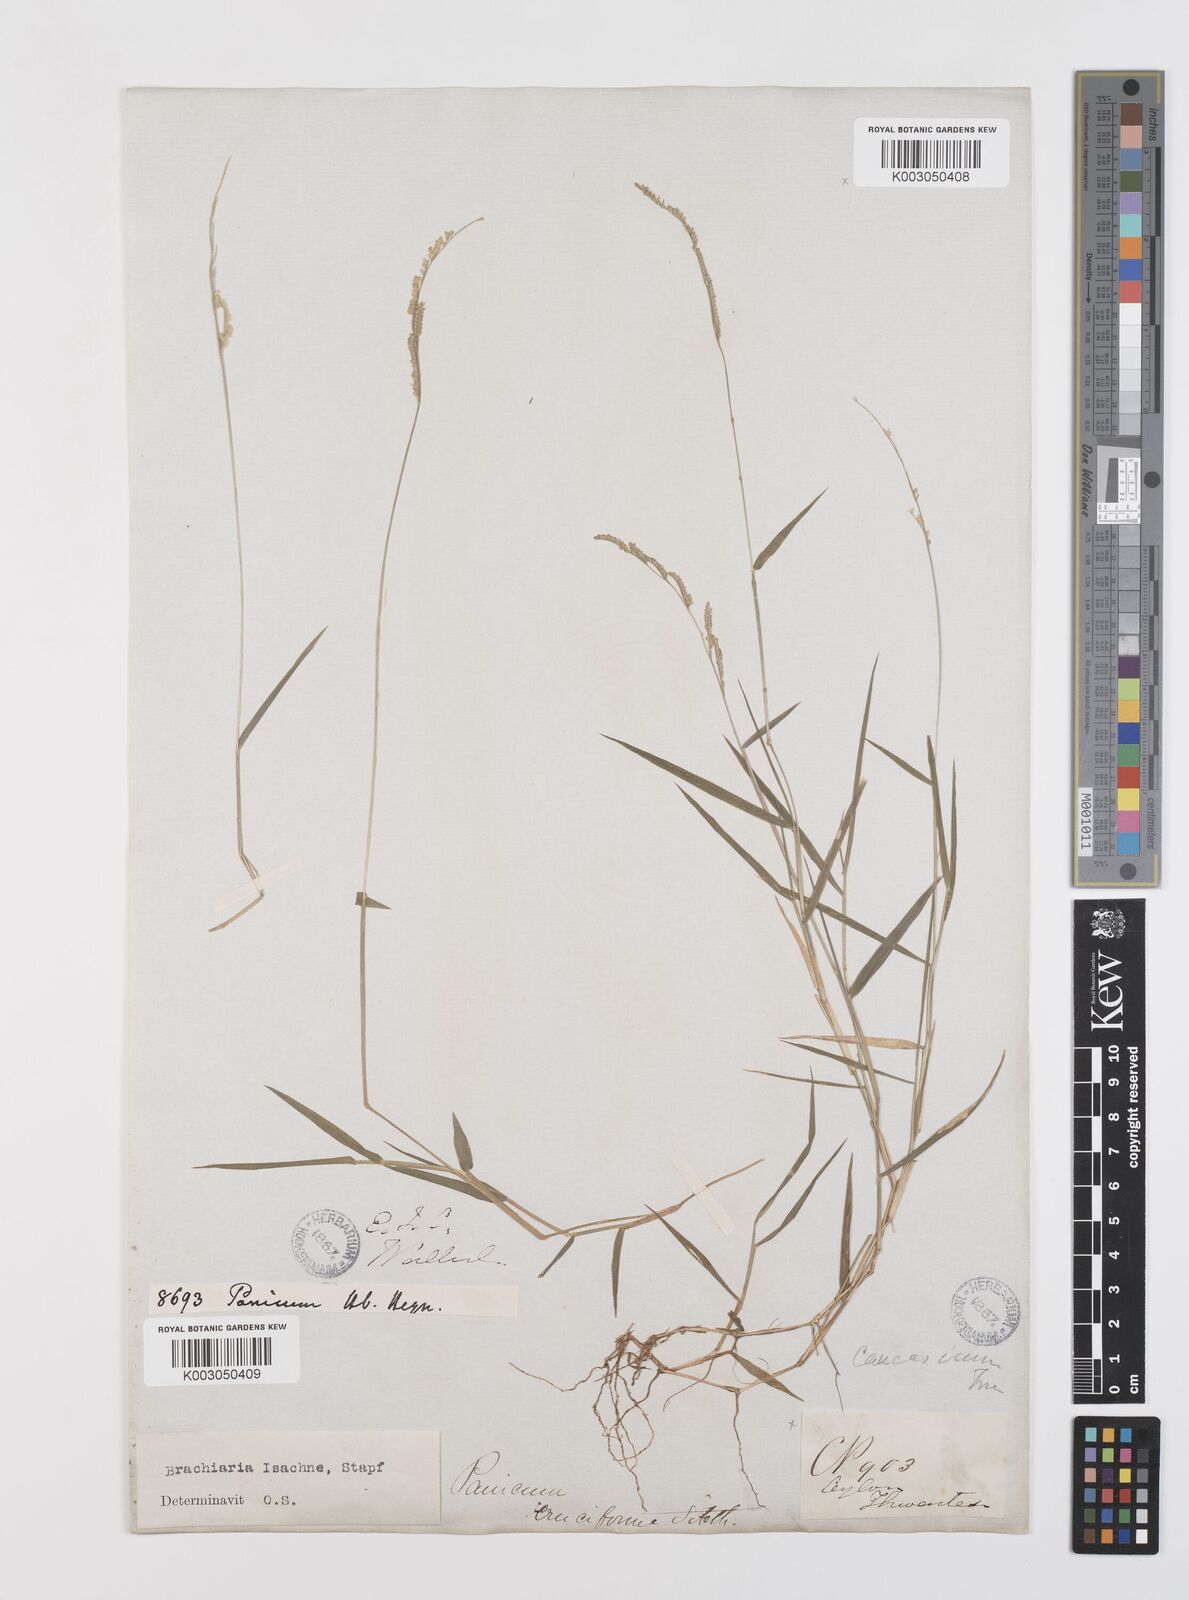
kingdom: Plantae
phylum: Tracheophyta
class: Liliopsida
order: Poales
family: Poaceae
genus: Moorochloa
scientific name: Moorochloa eruciformis
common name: Sweet signalgrass
